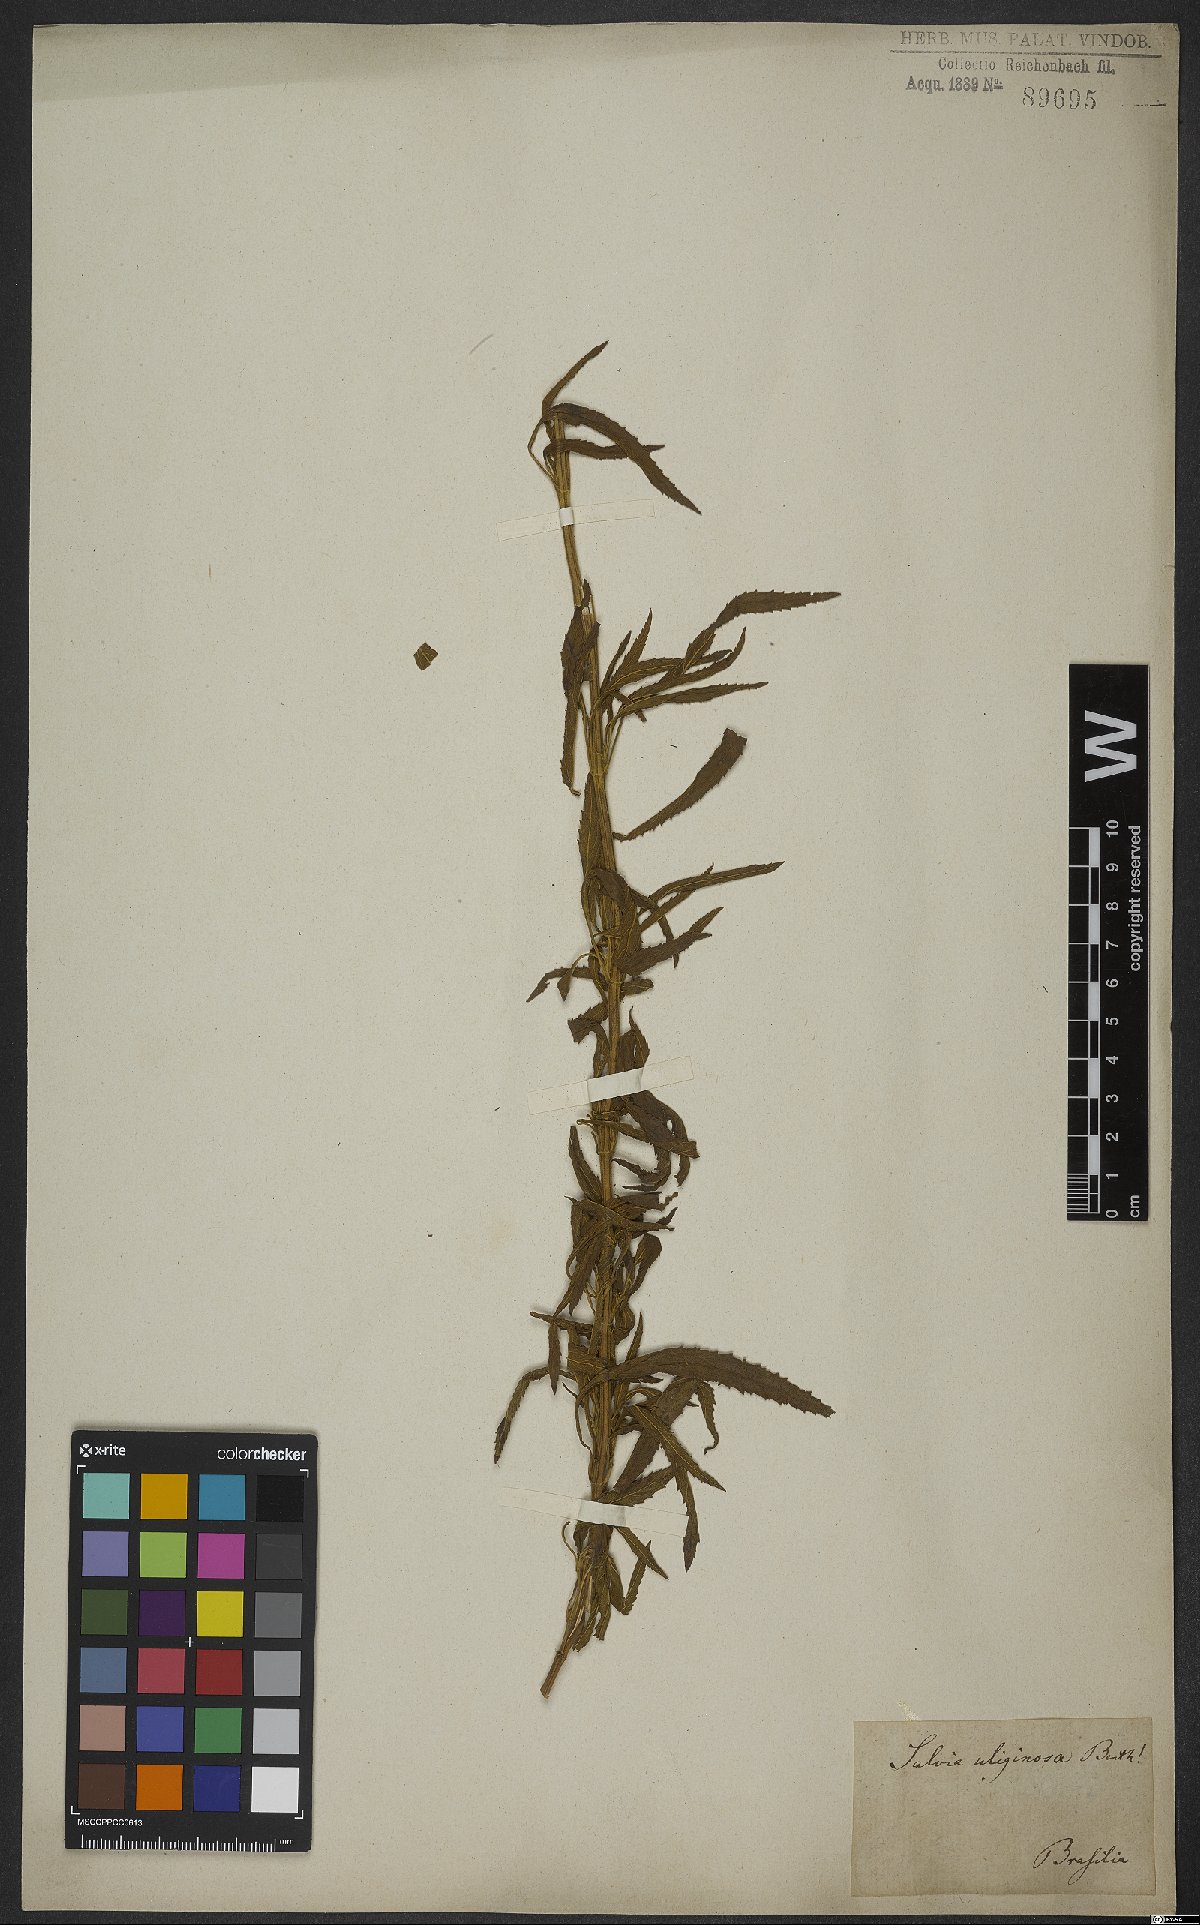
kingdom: Plantae
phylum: Tracheophyta
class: Magnoliopsida
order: Lamiales
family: Lamiaceae
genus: Salvia
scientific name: Salvia uliginosa
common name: Bog sage
